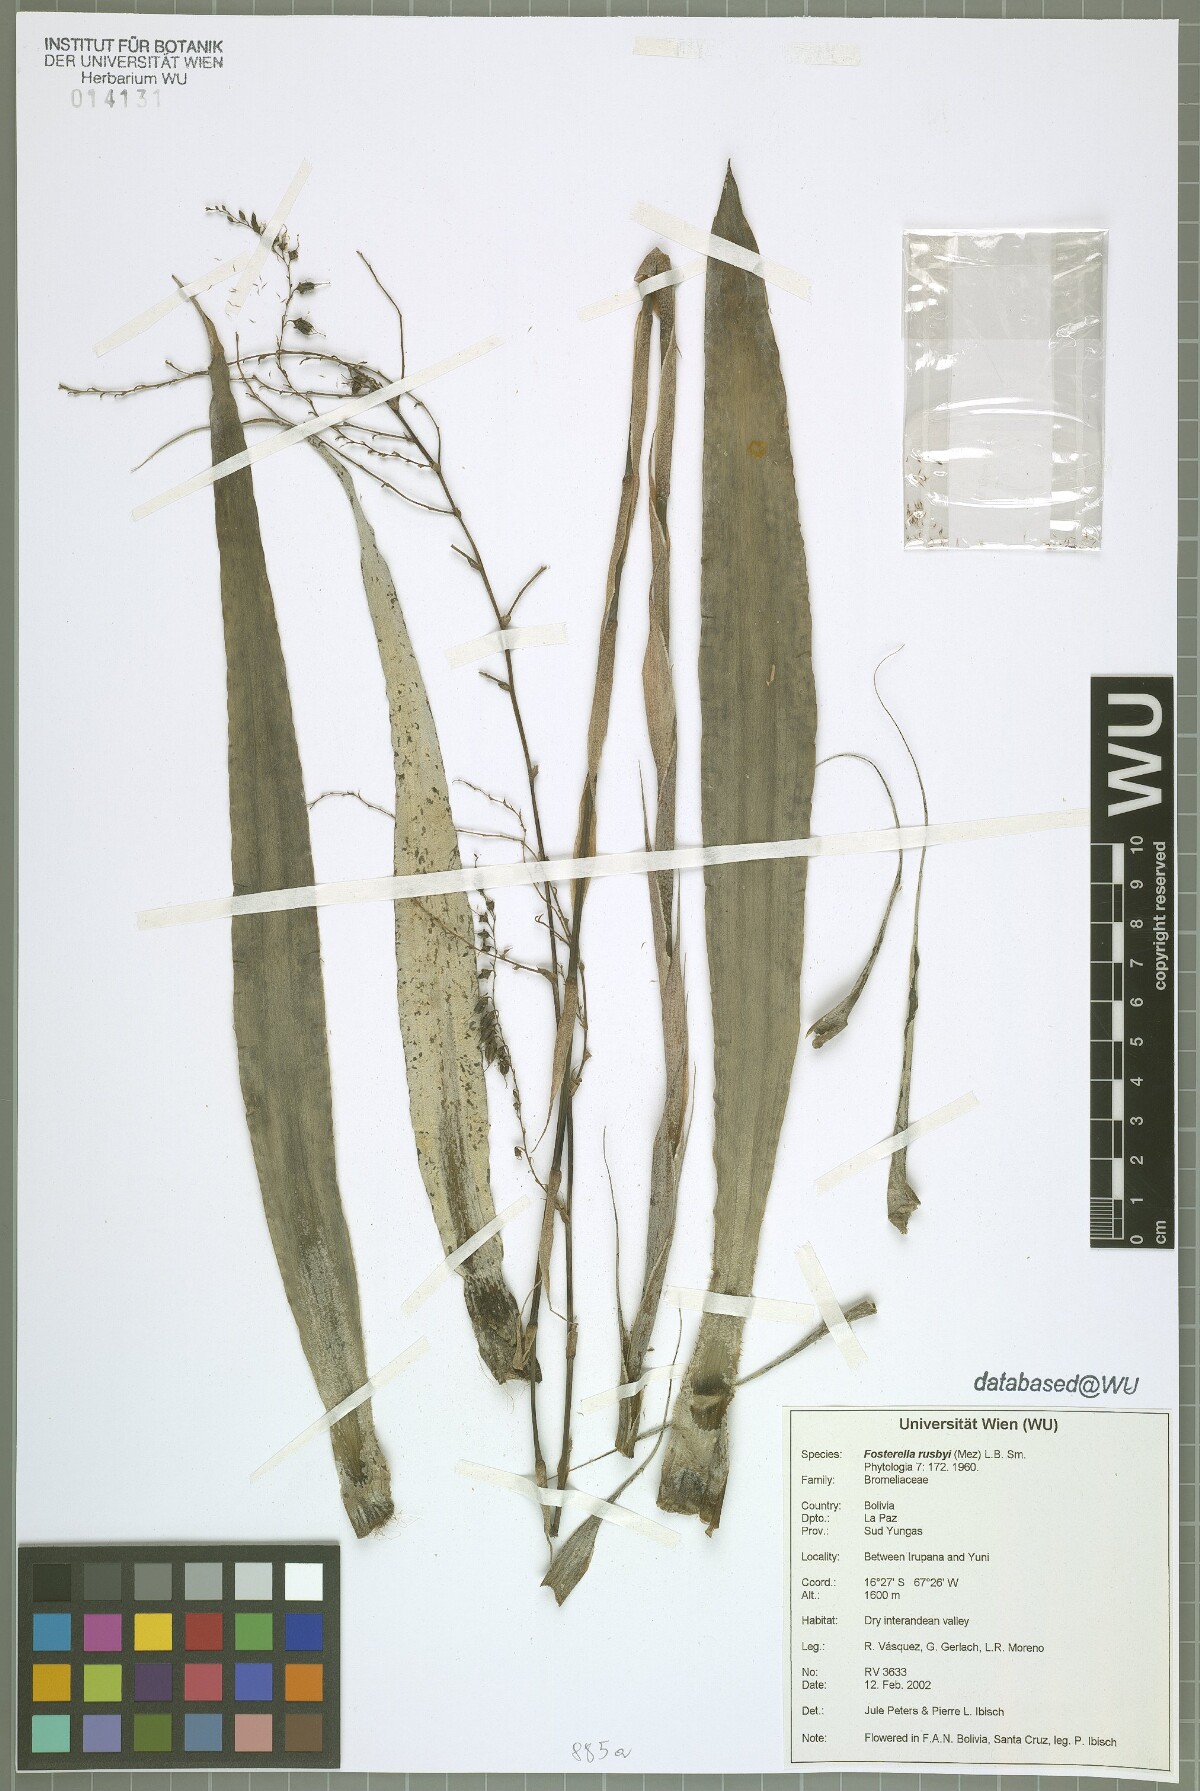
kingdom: Plantae
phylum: Tracheophyta
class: Liliopsida
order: Poales
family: Bromeliaceae
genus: Fosterella
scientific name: Fosterella rusbyi
